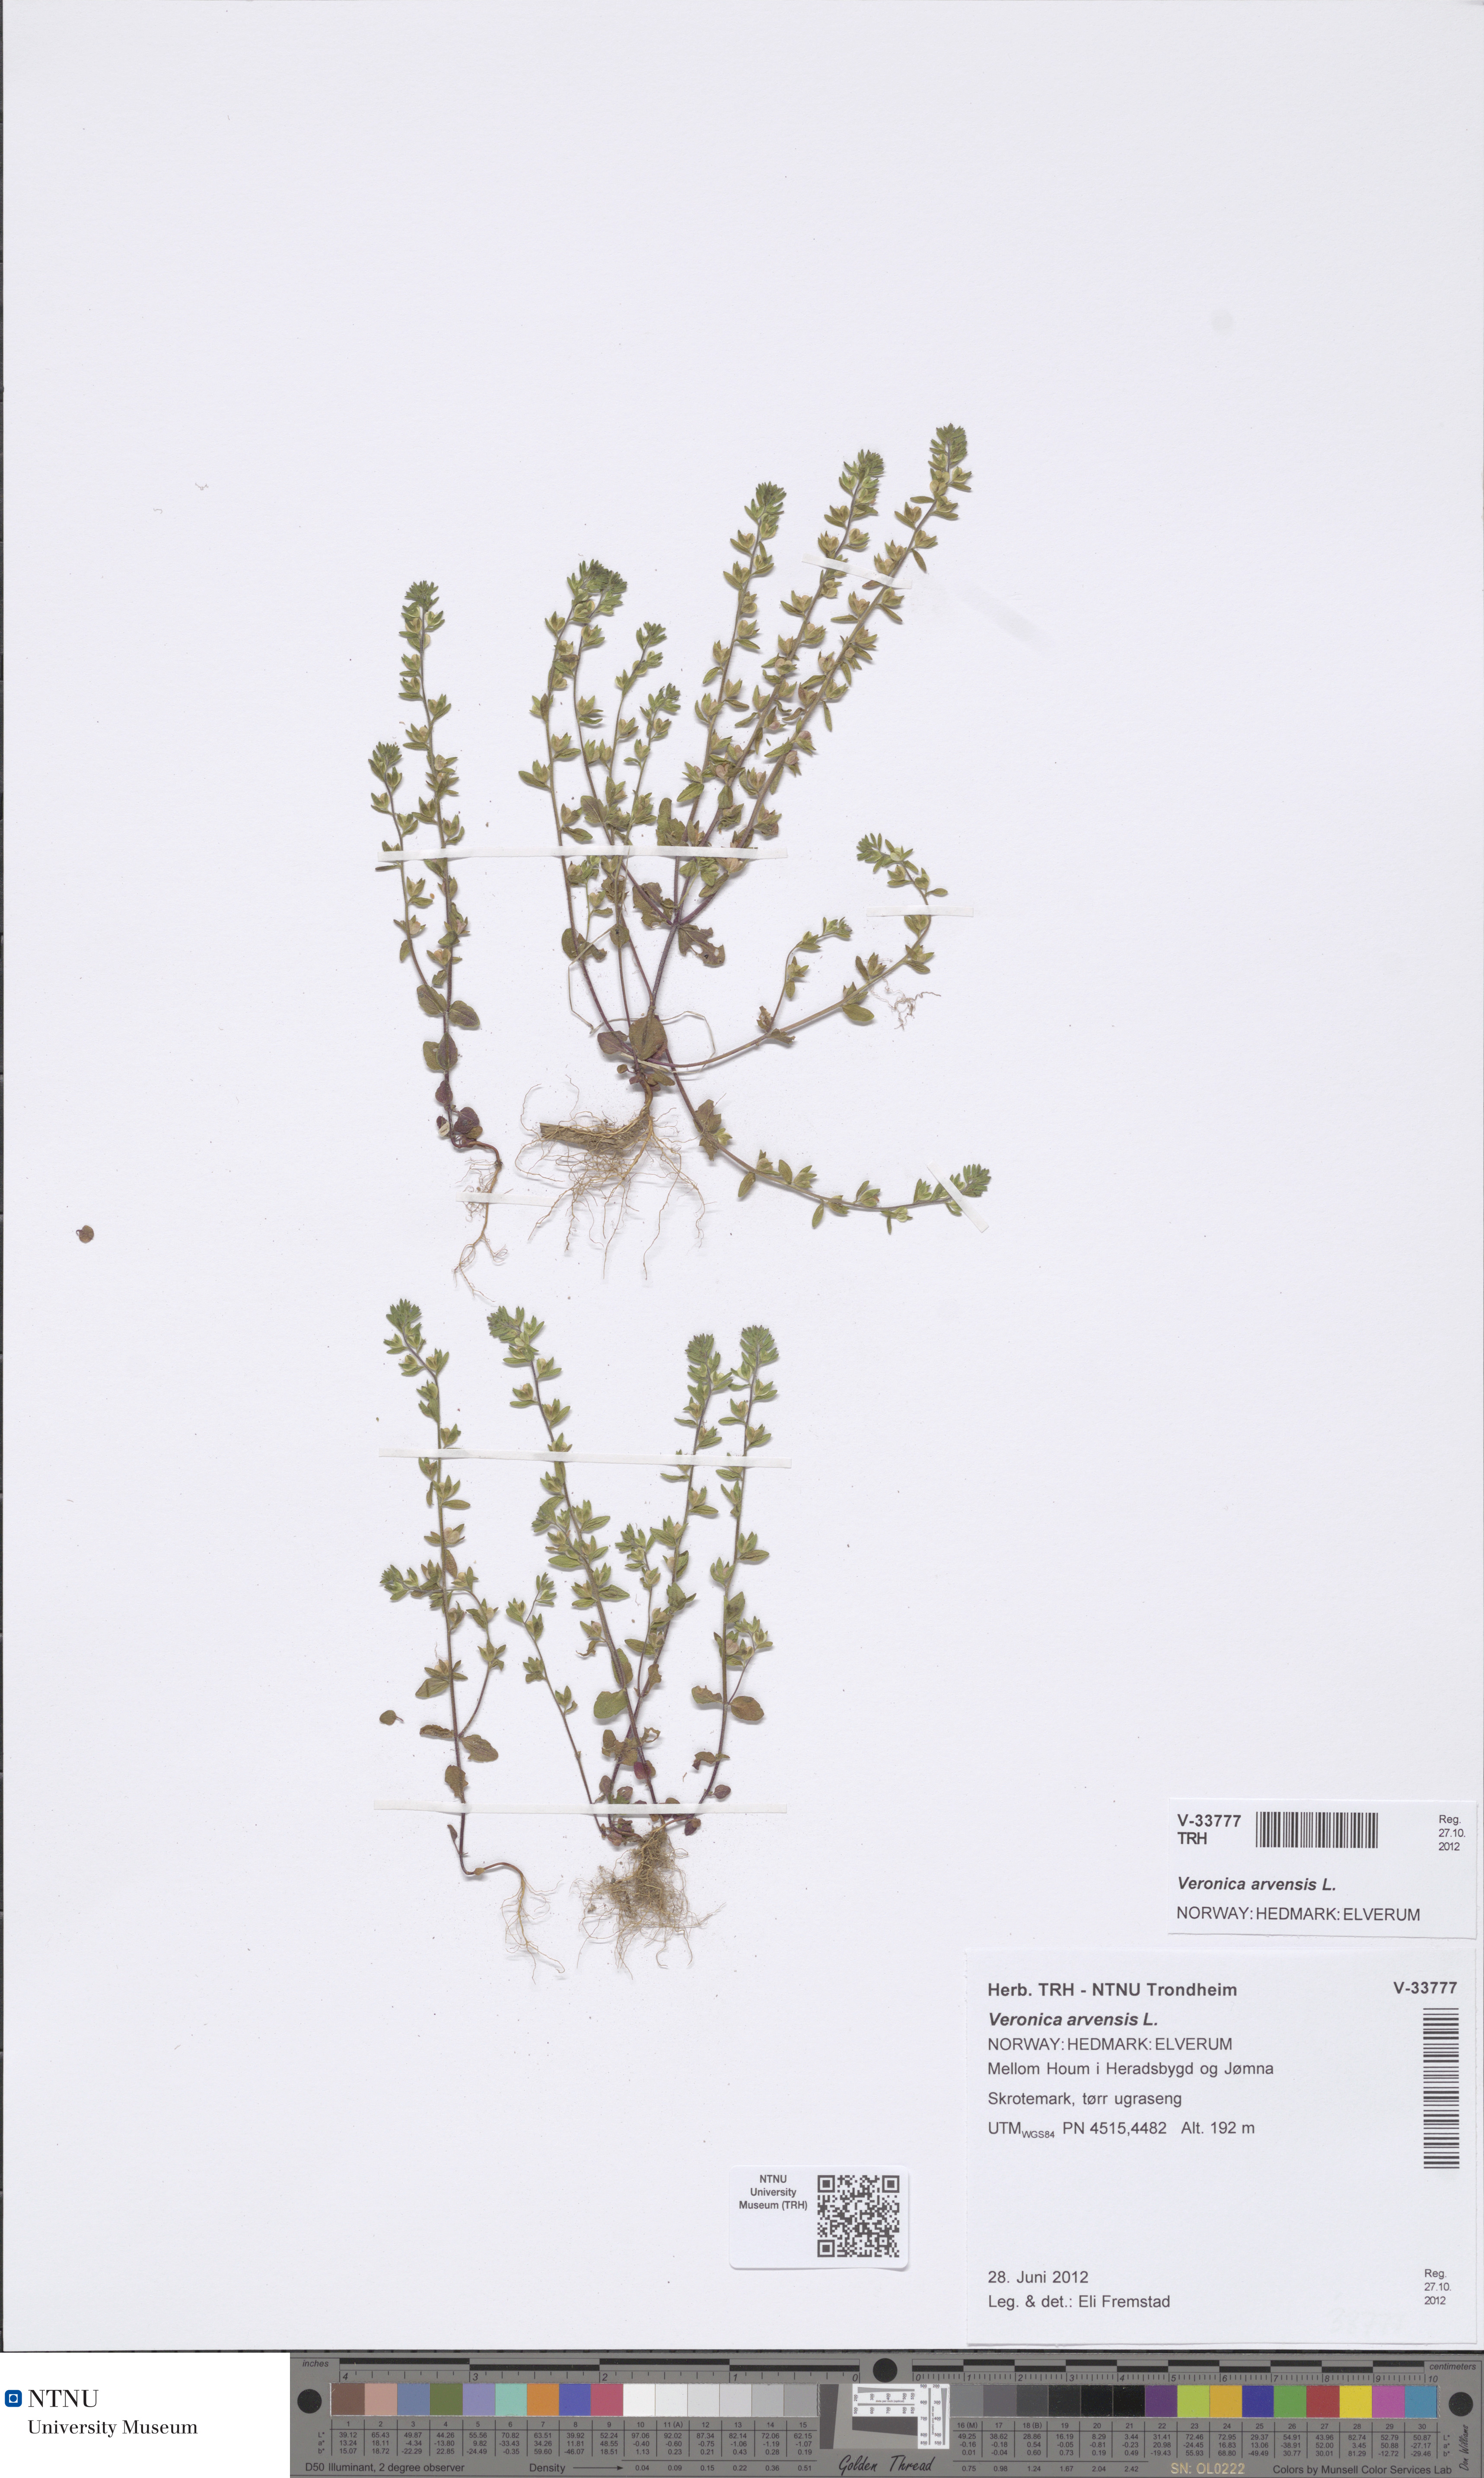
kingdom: Plantae
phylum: Tracheophyta
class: Magnoliopsida
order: Lamiales
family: Plantaginaceae
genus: Veronica
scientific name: Veronica arvensis
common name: Corn speedwell
